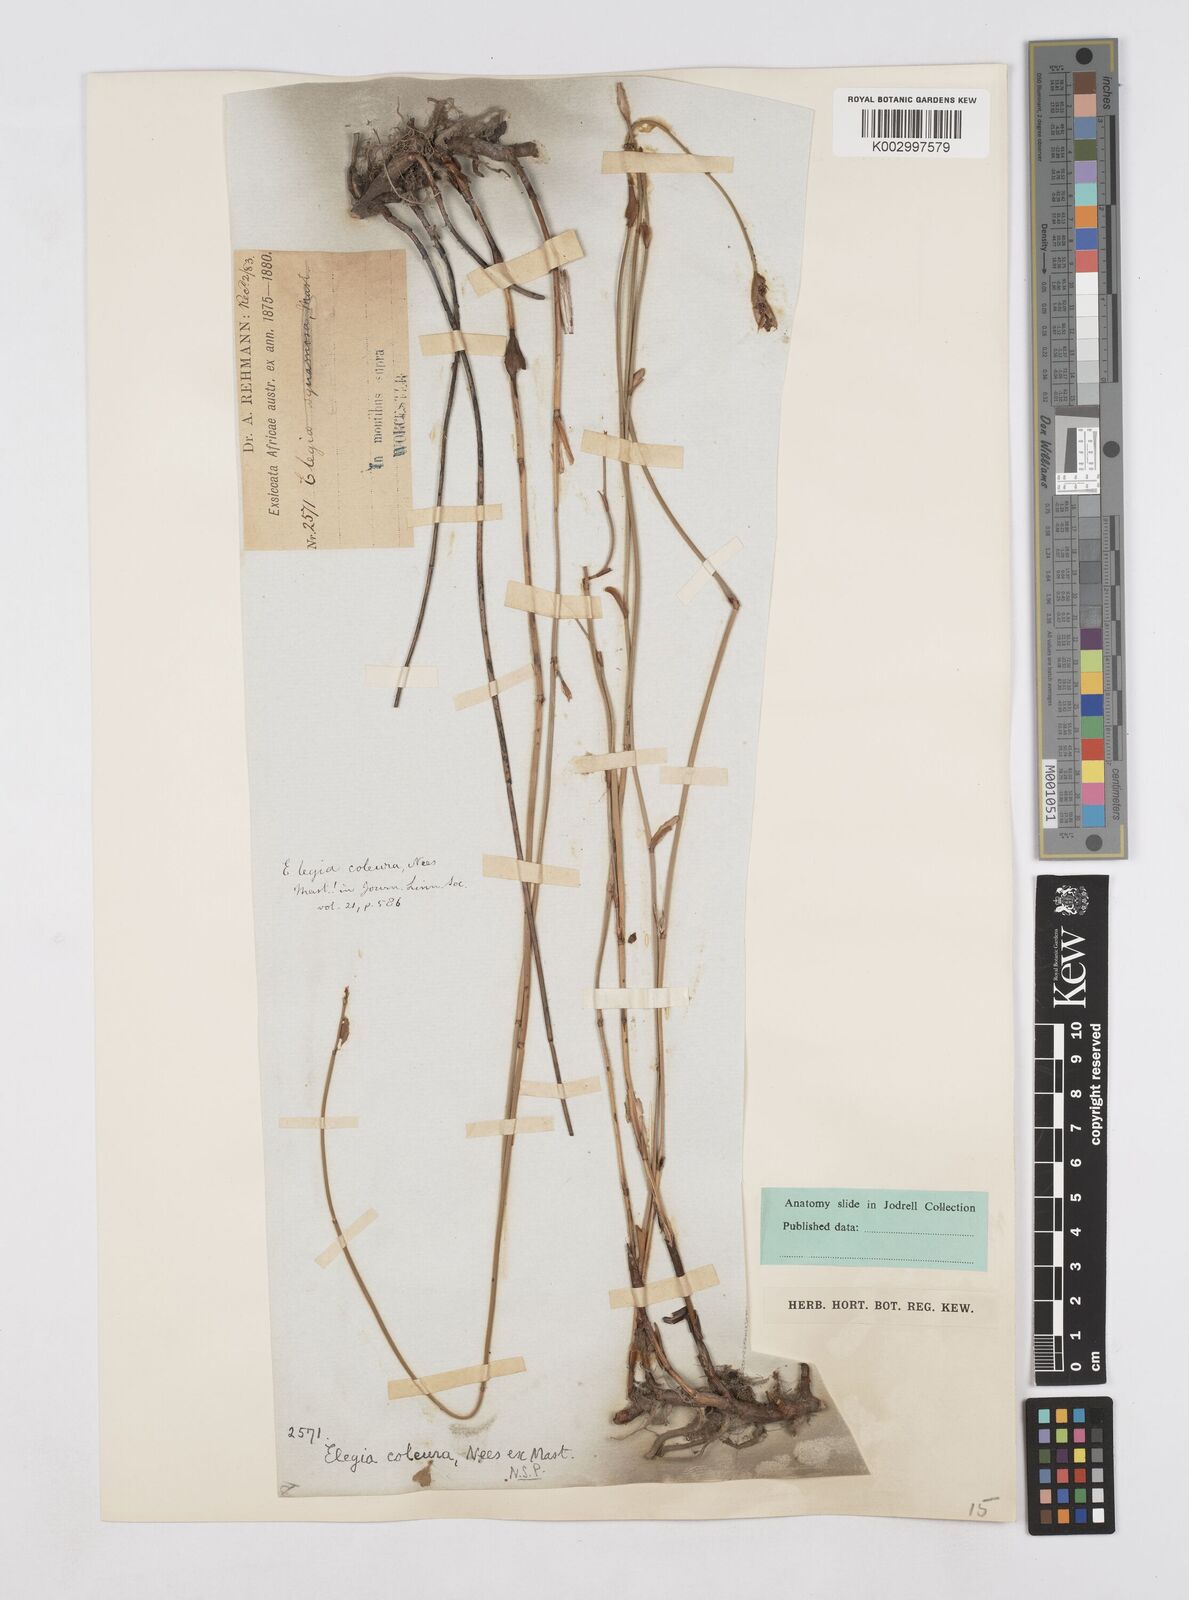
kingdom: Plantae
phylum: Tracheophyta
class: Liliopsida
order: Poales
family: Restionaceae
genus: Elegia
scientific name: Elegia coleura
